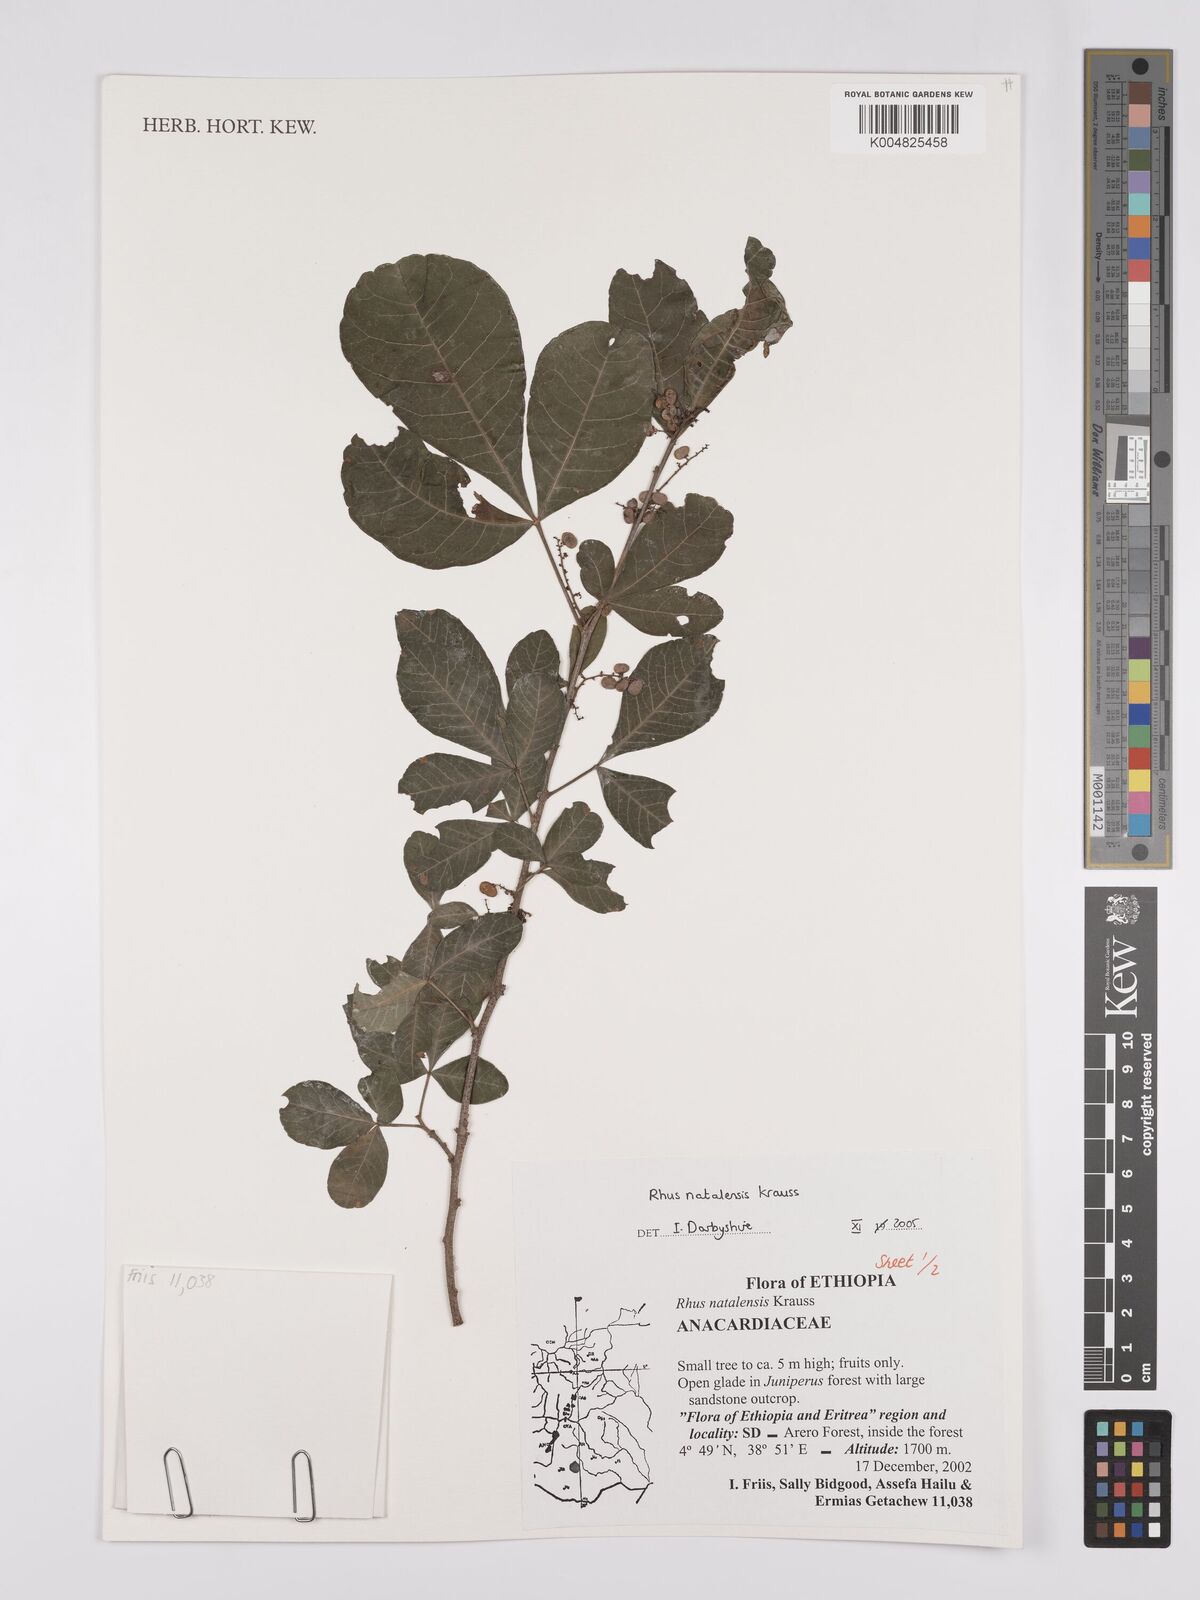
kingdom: Plantae
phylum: Tracheophyta
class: Magnoliopsida
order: Sapindales
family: Anacardiaceae
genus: Searsia
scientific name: Searsia natalensis
